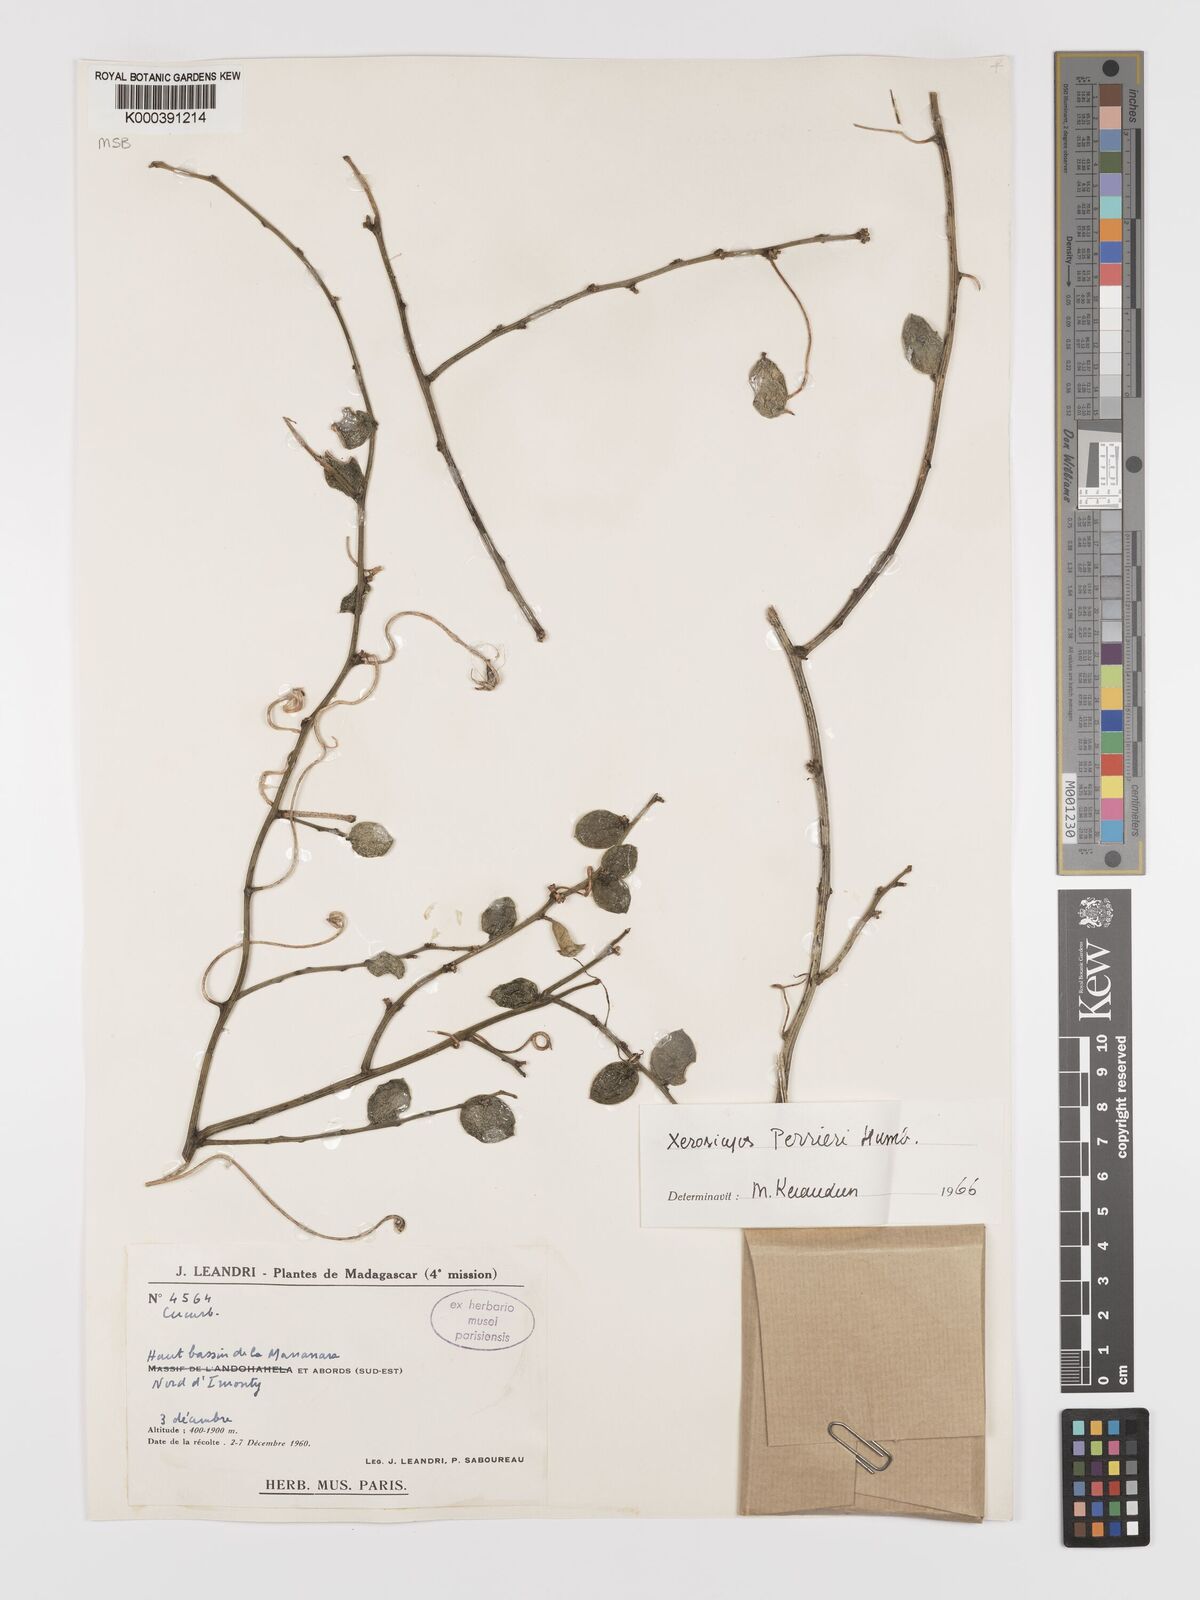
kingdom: Plantae
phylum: Tracheophyta
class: Magnoliopsida
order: Cucurbitales
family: Cucurbitaceae
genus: Xerosicyos
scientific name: Xerosicyos perrieri
